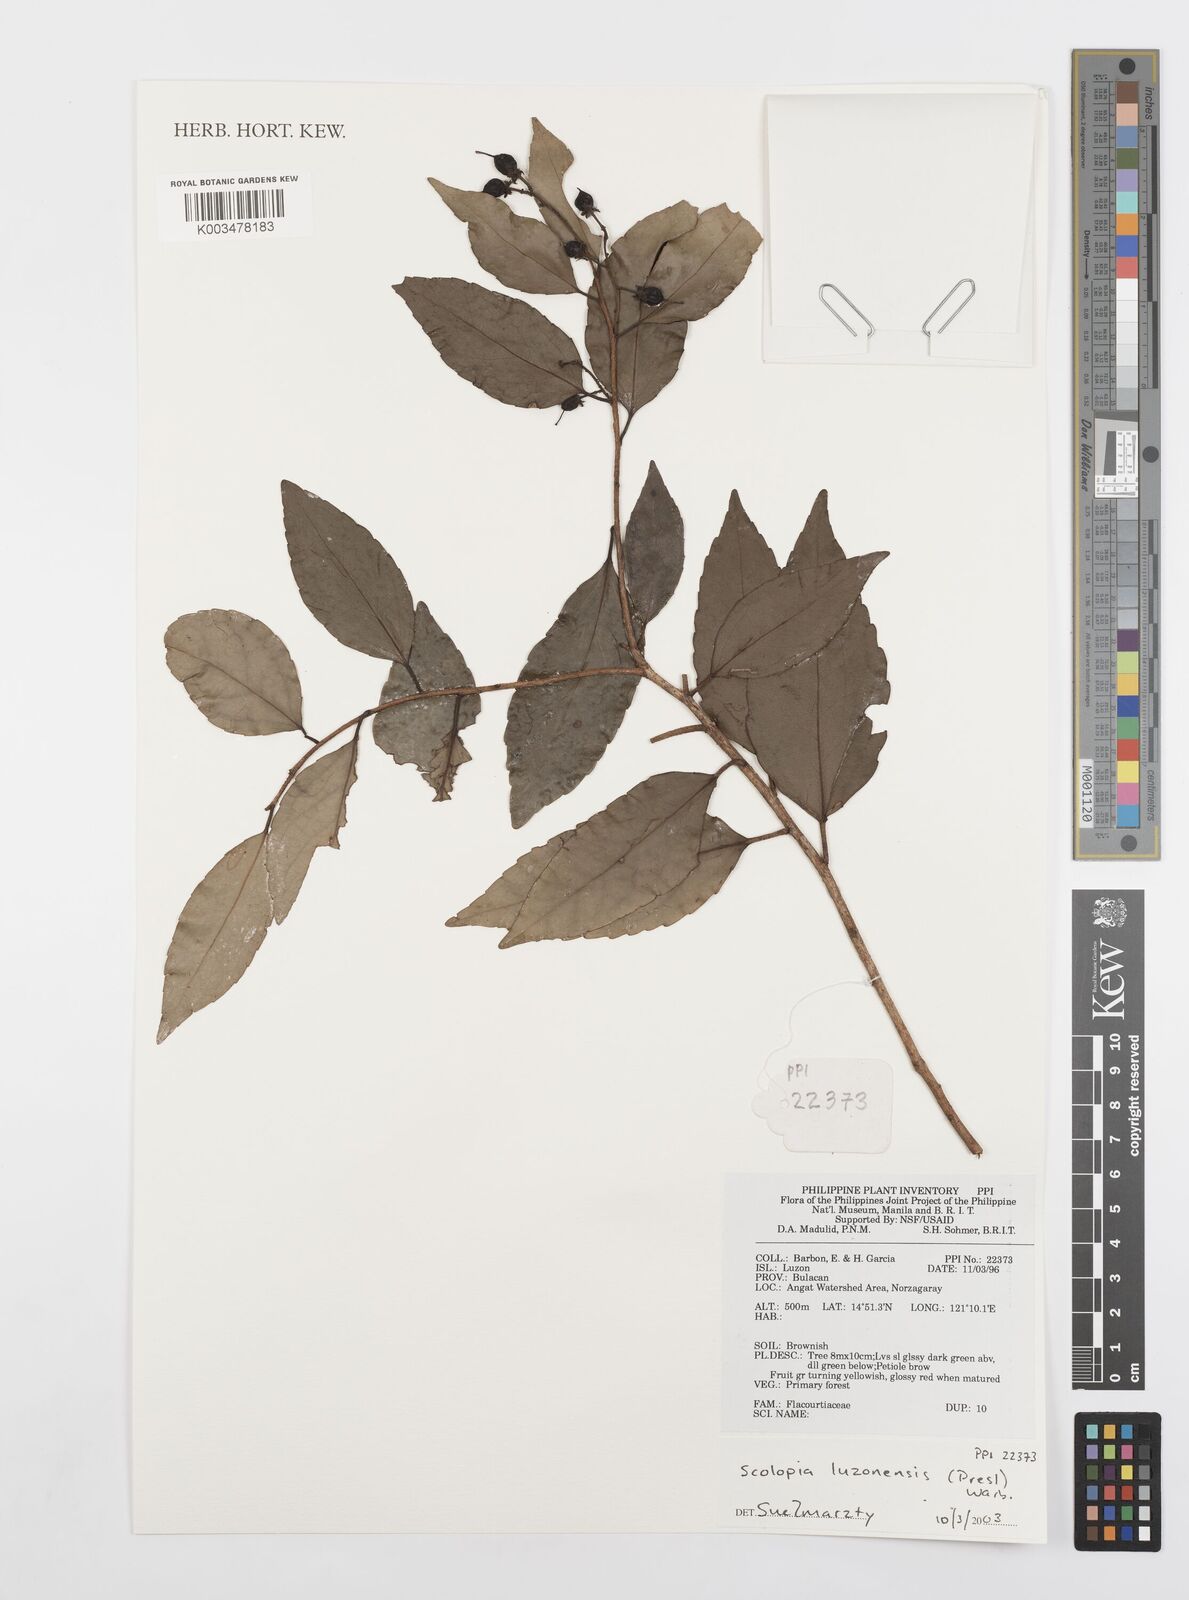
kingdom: Plantae
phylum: Tracheophyta
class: Magnoliopsida
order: Malpighiales
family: Salicaceae
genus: Scolopia
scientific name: Scolopia luzonensis
